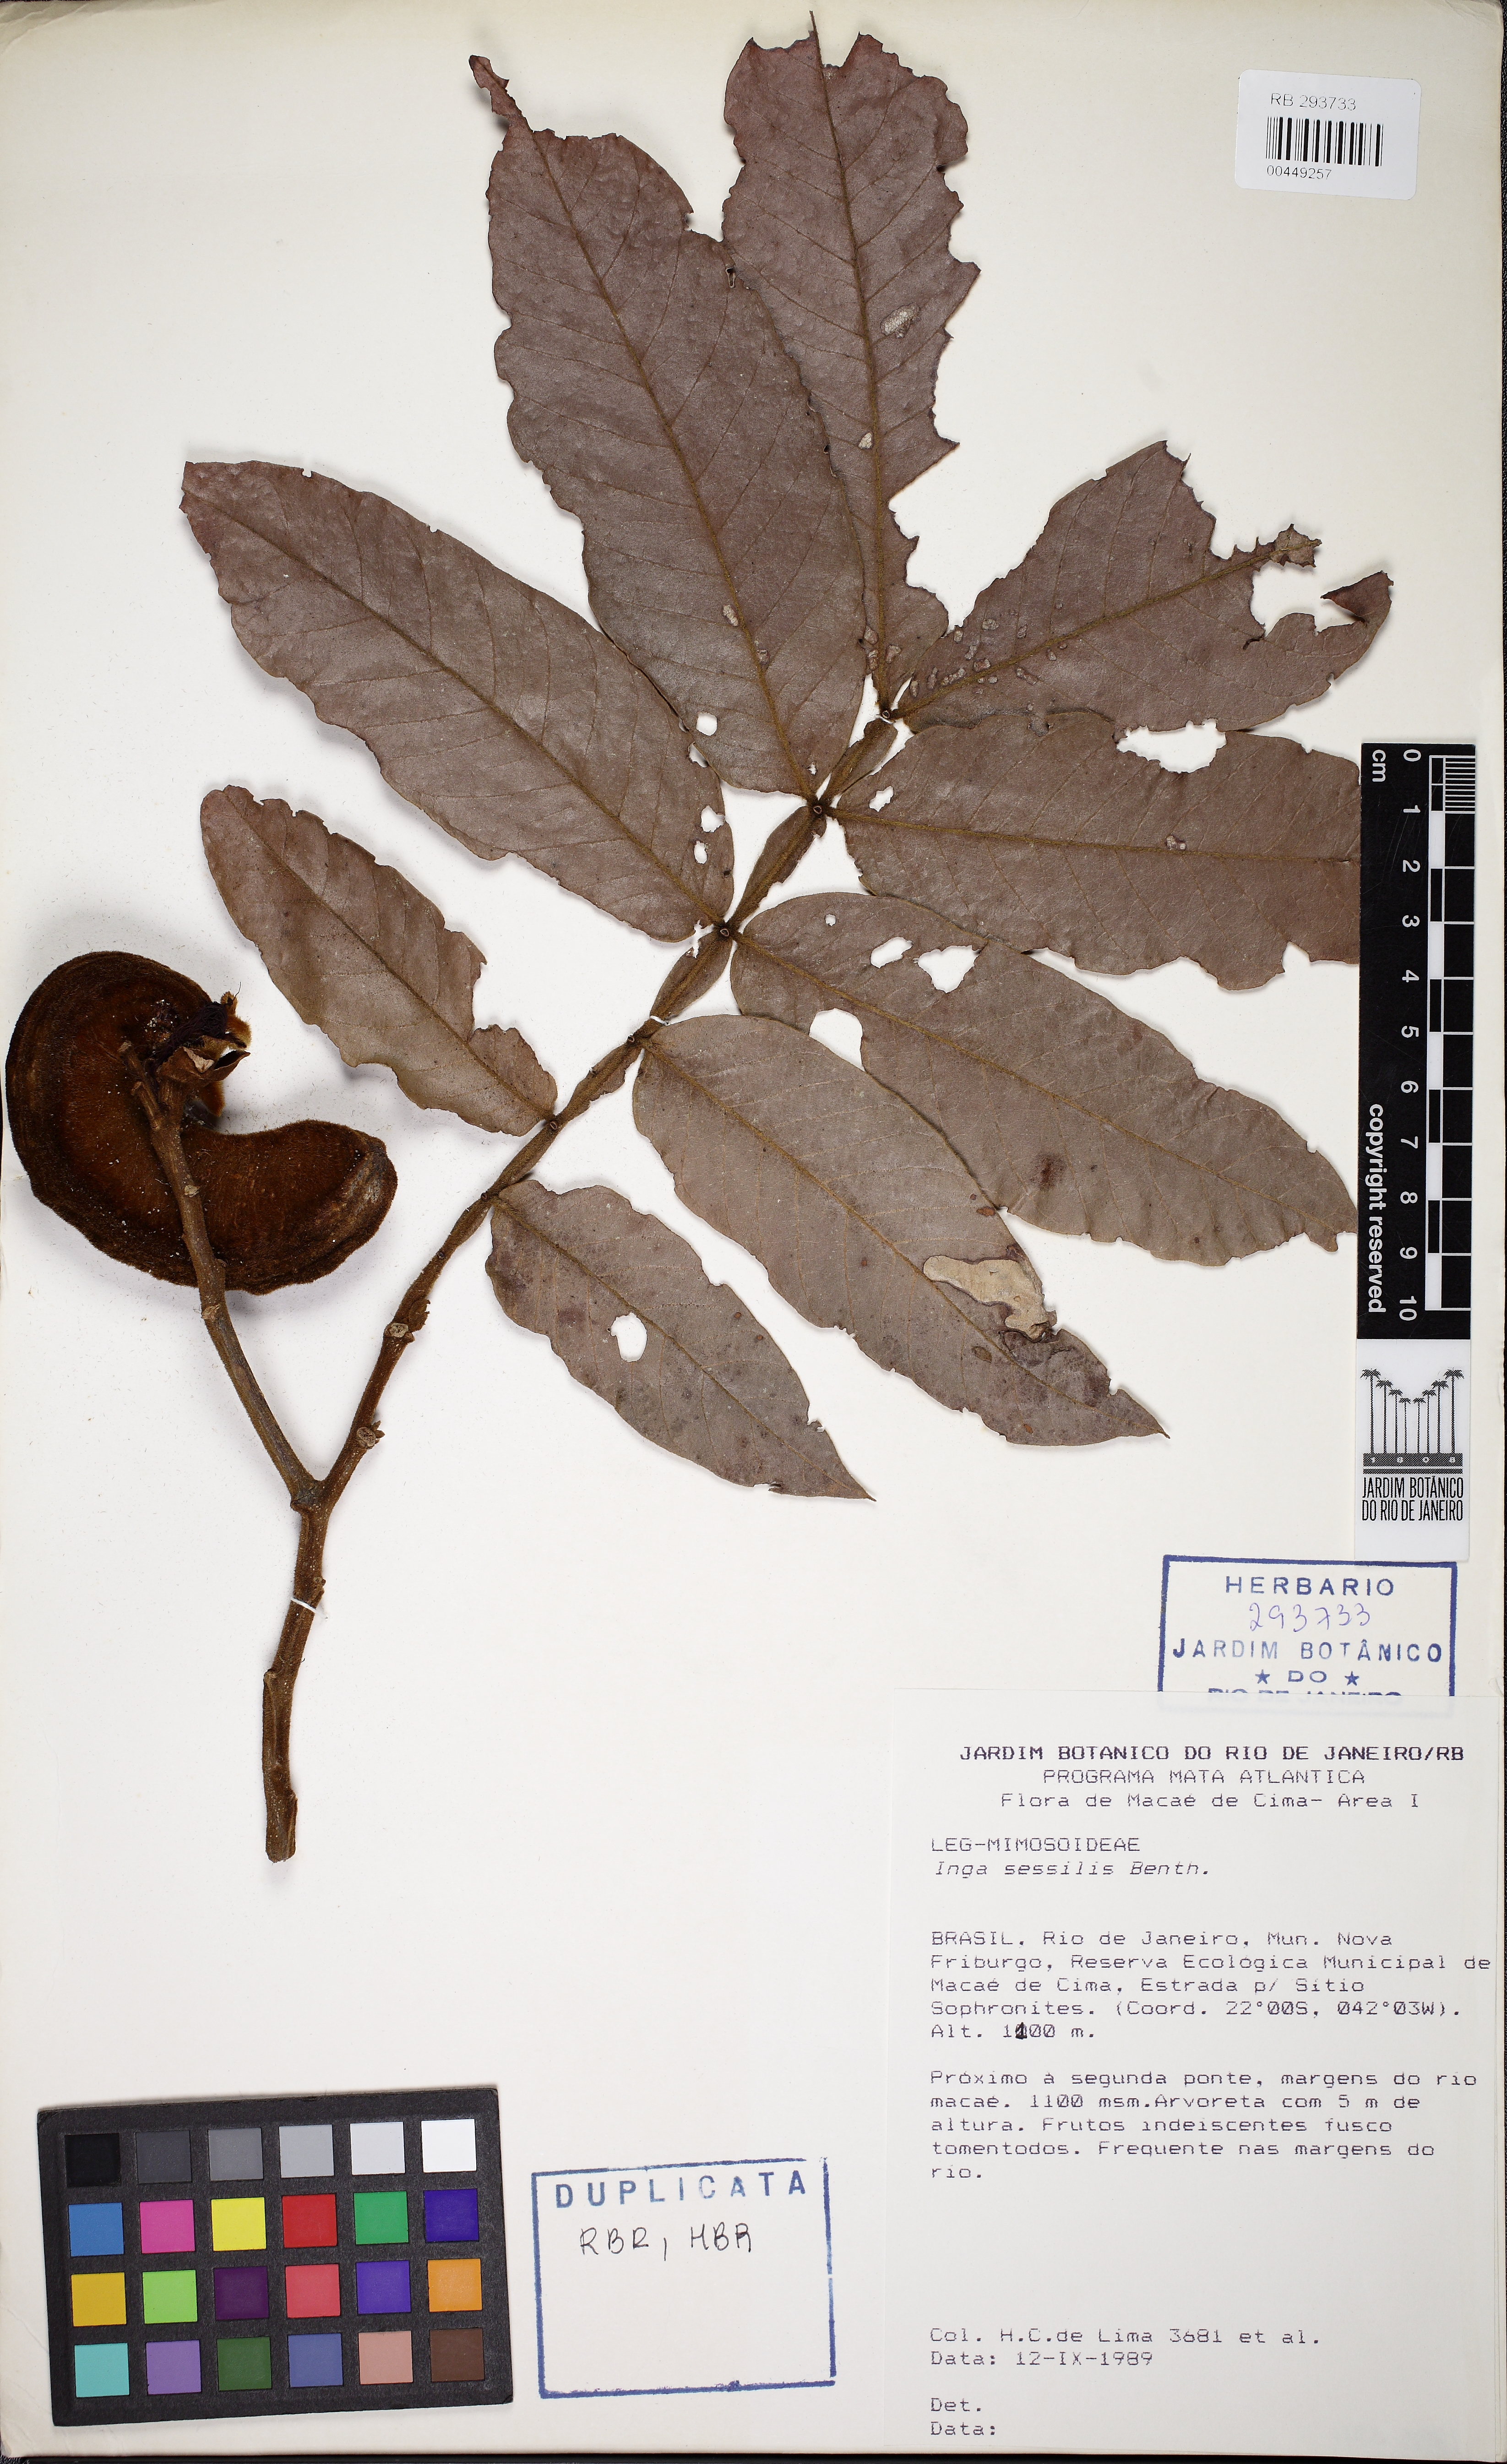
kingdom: Plantae
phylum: Tracheophyta
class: Magnoliopsida
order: Fabales
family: Fabaceae
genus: Inga
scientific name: Inga sessilis
